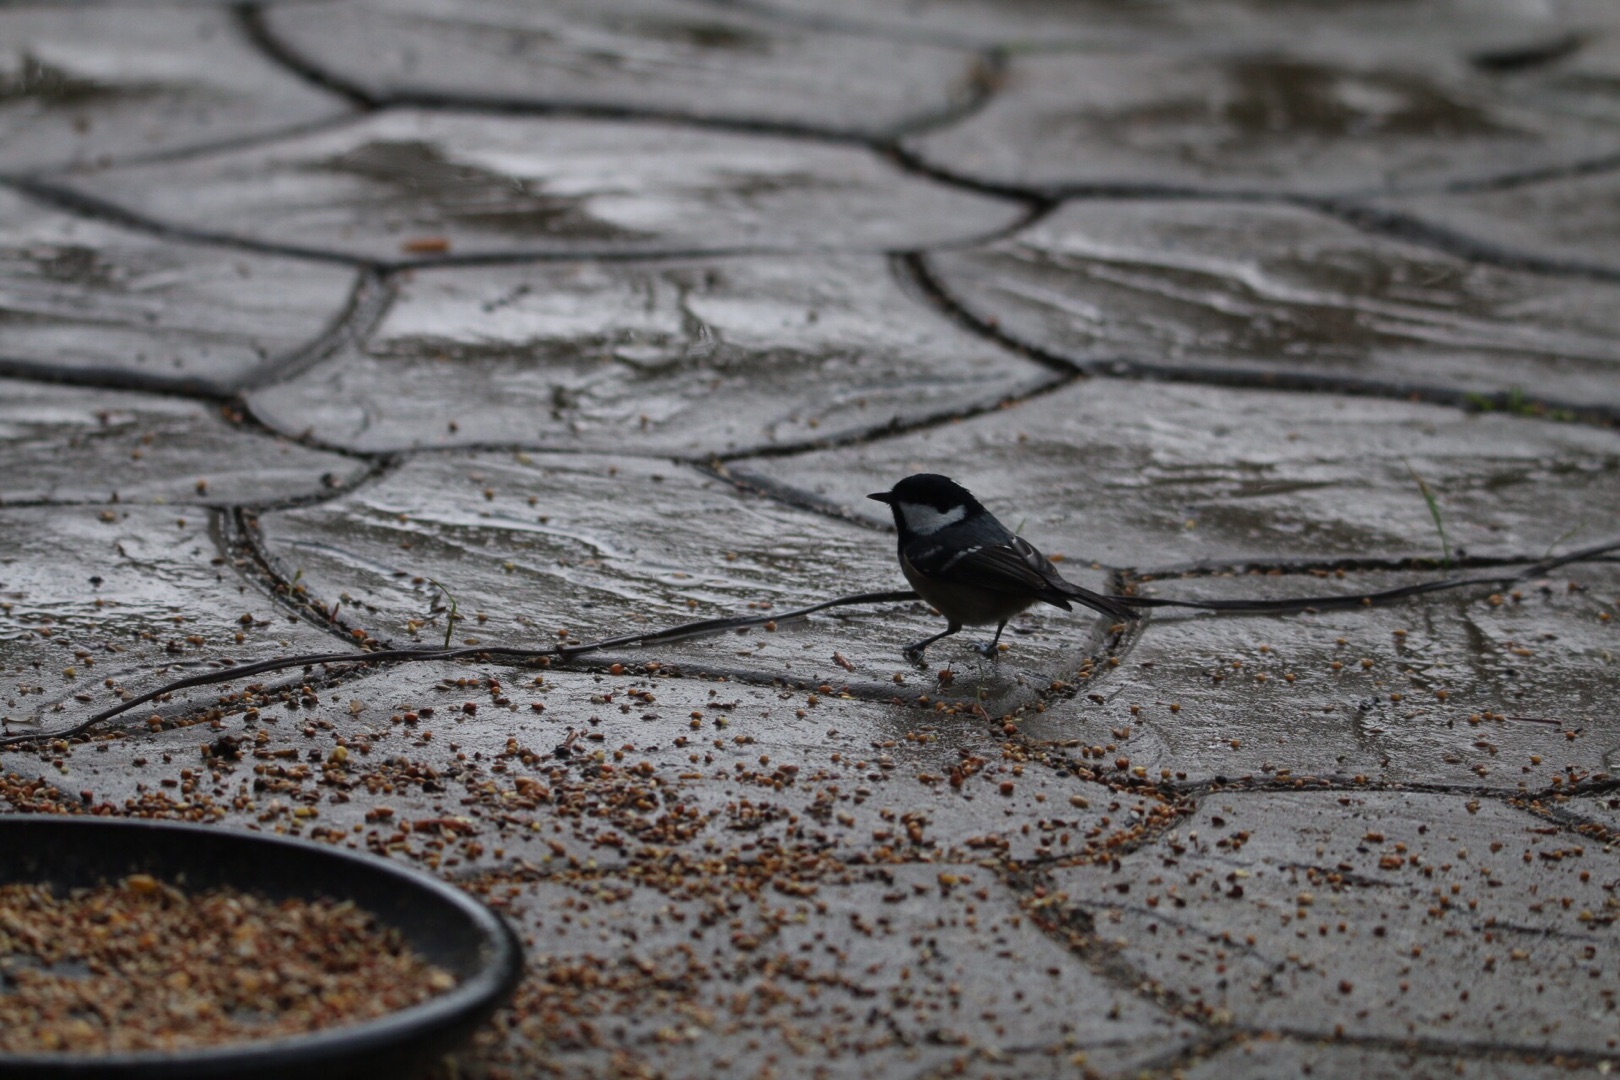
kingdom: Animalia
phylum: Chordata
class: Aves
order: Passeriformes
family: Paridae
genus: Periparus
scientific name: Periparus ater
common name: Sortmejse
